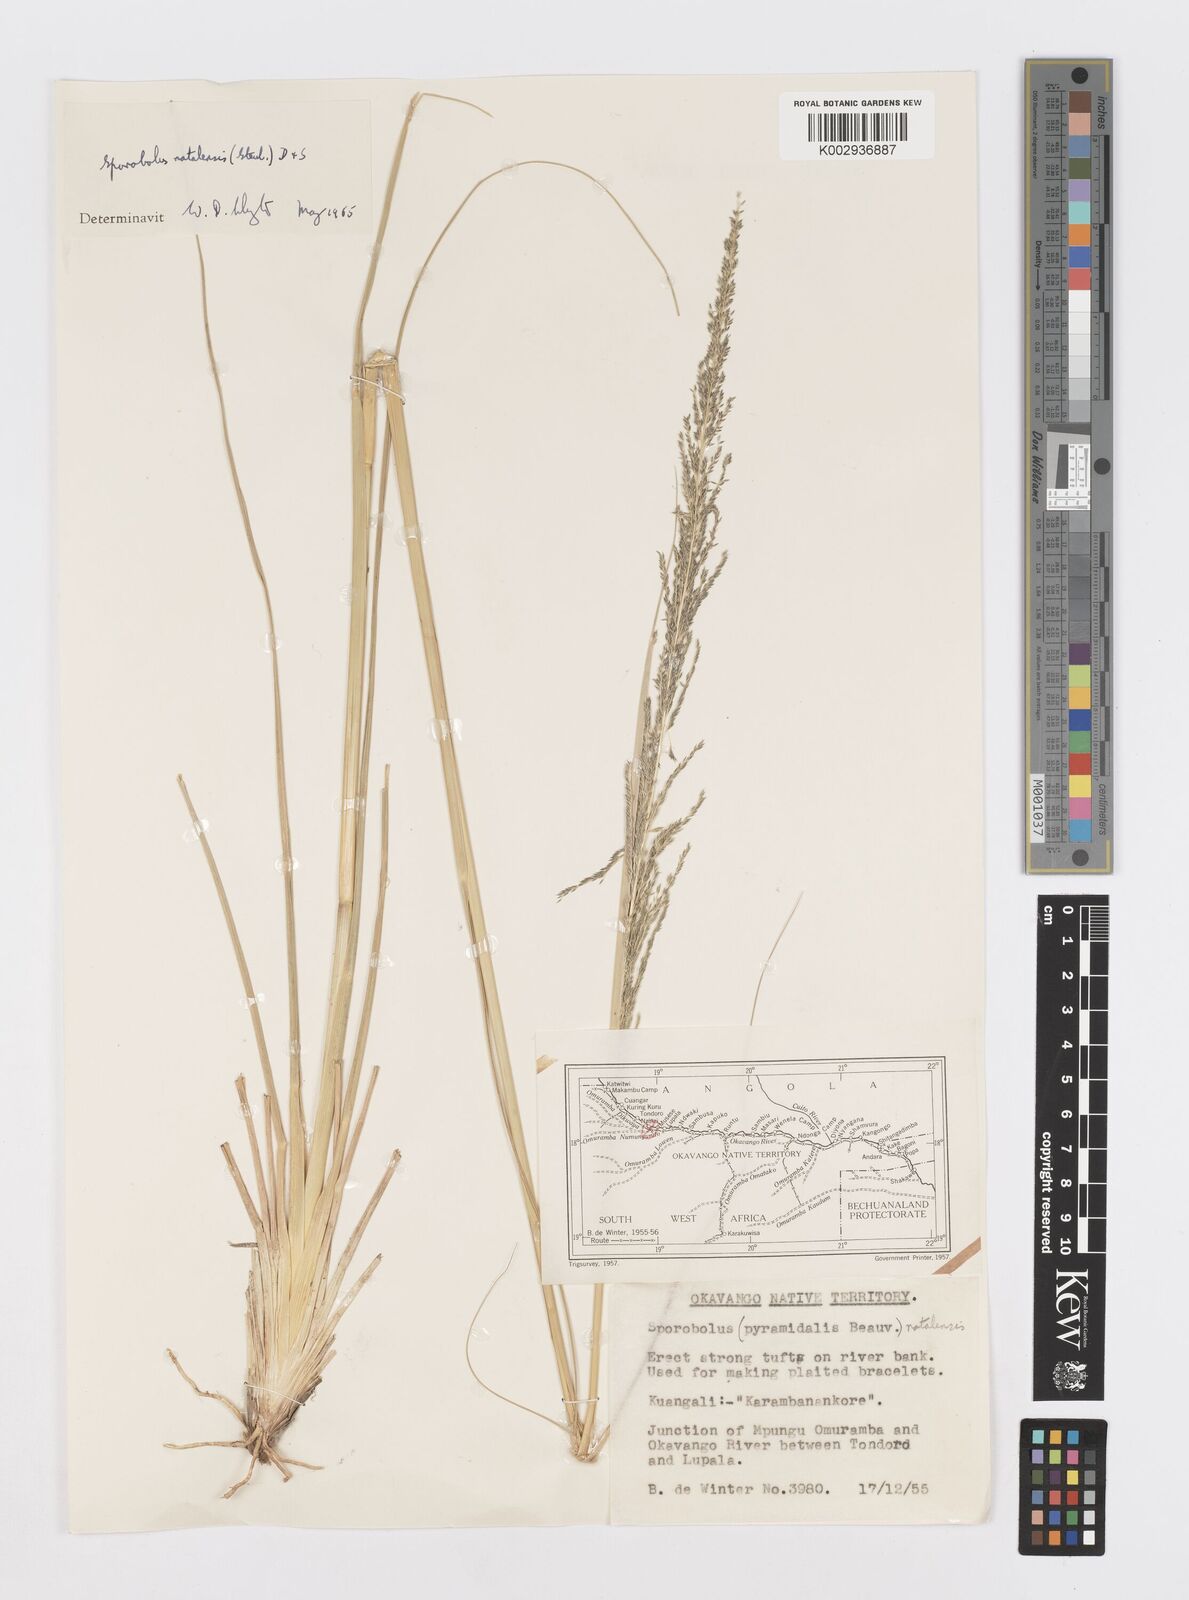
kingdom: Plantae
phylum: Tracheophyta
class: Liliopsida
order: Poales
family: Poaceae
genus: Sporobolus
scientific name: Sporobolus natalensis
